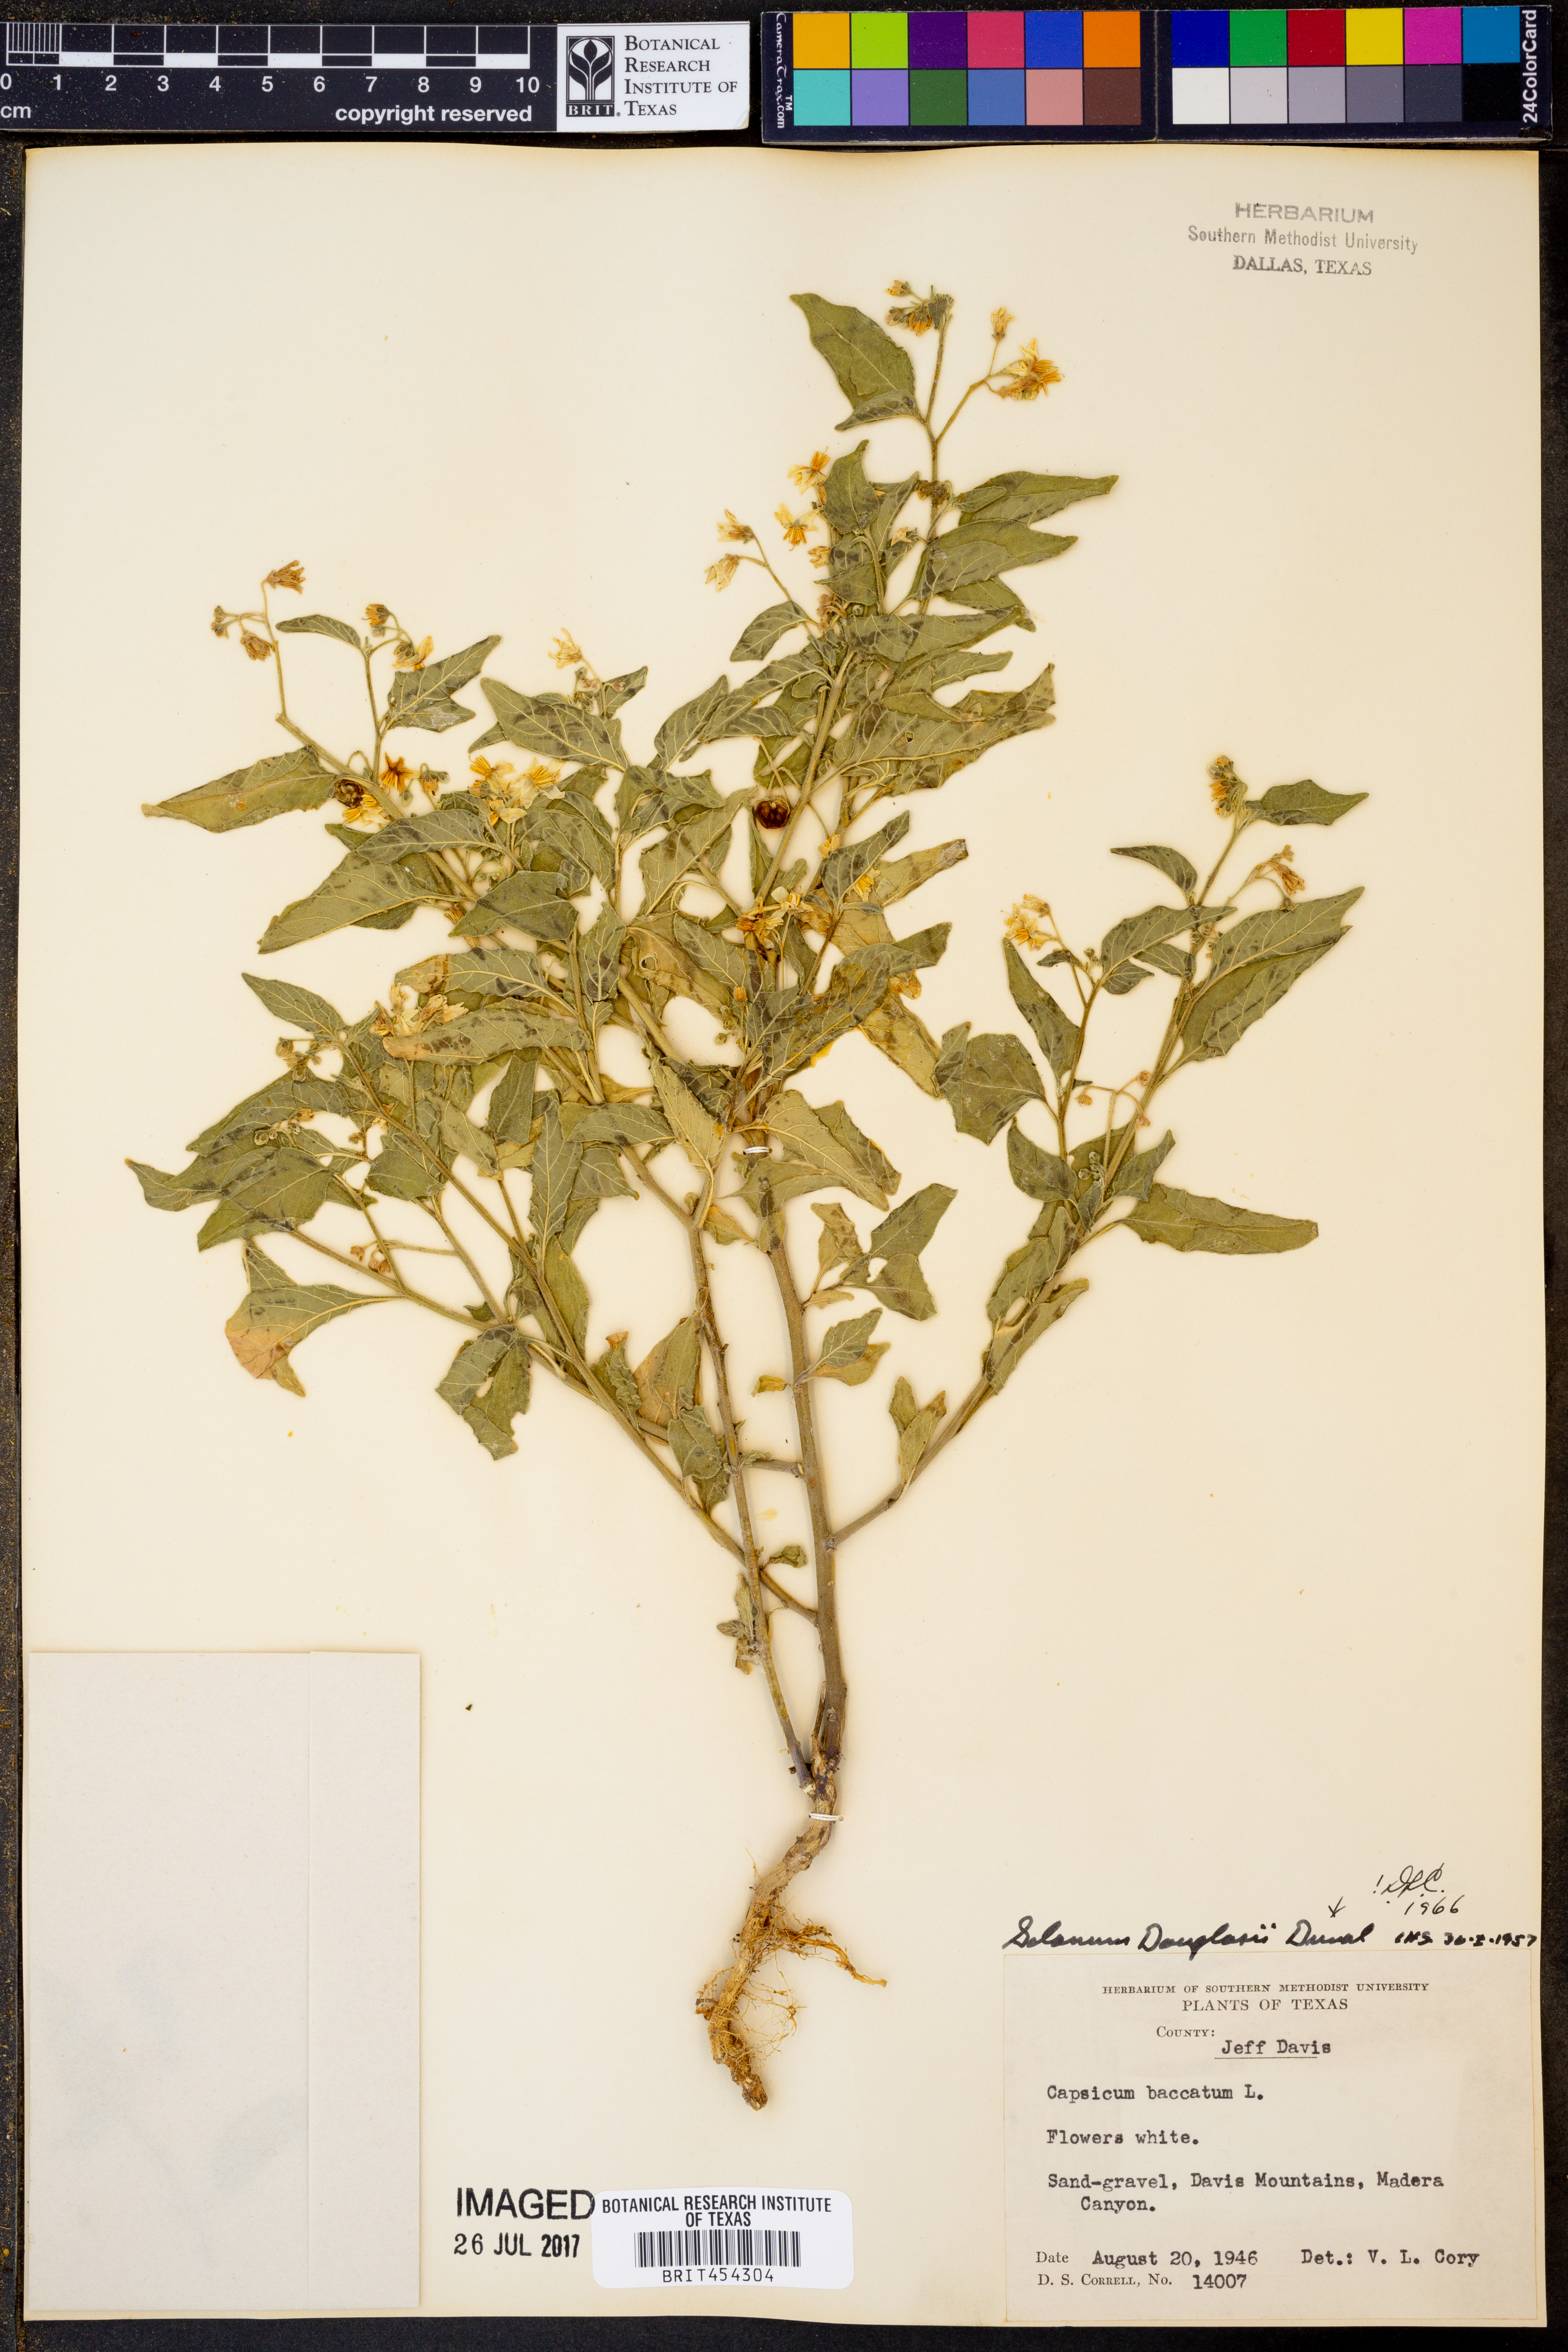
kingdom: Plantae
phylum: Tracheophyta
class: Magnoliopsida
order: Solanales
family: Solanaceae
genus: Solanum
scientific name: Solanum douglasii
